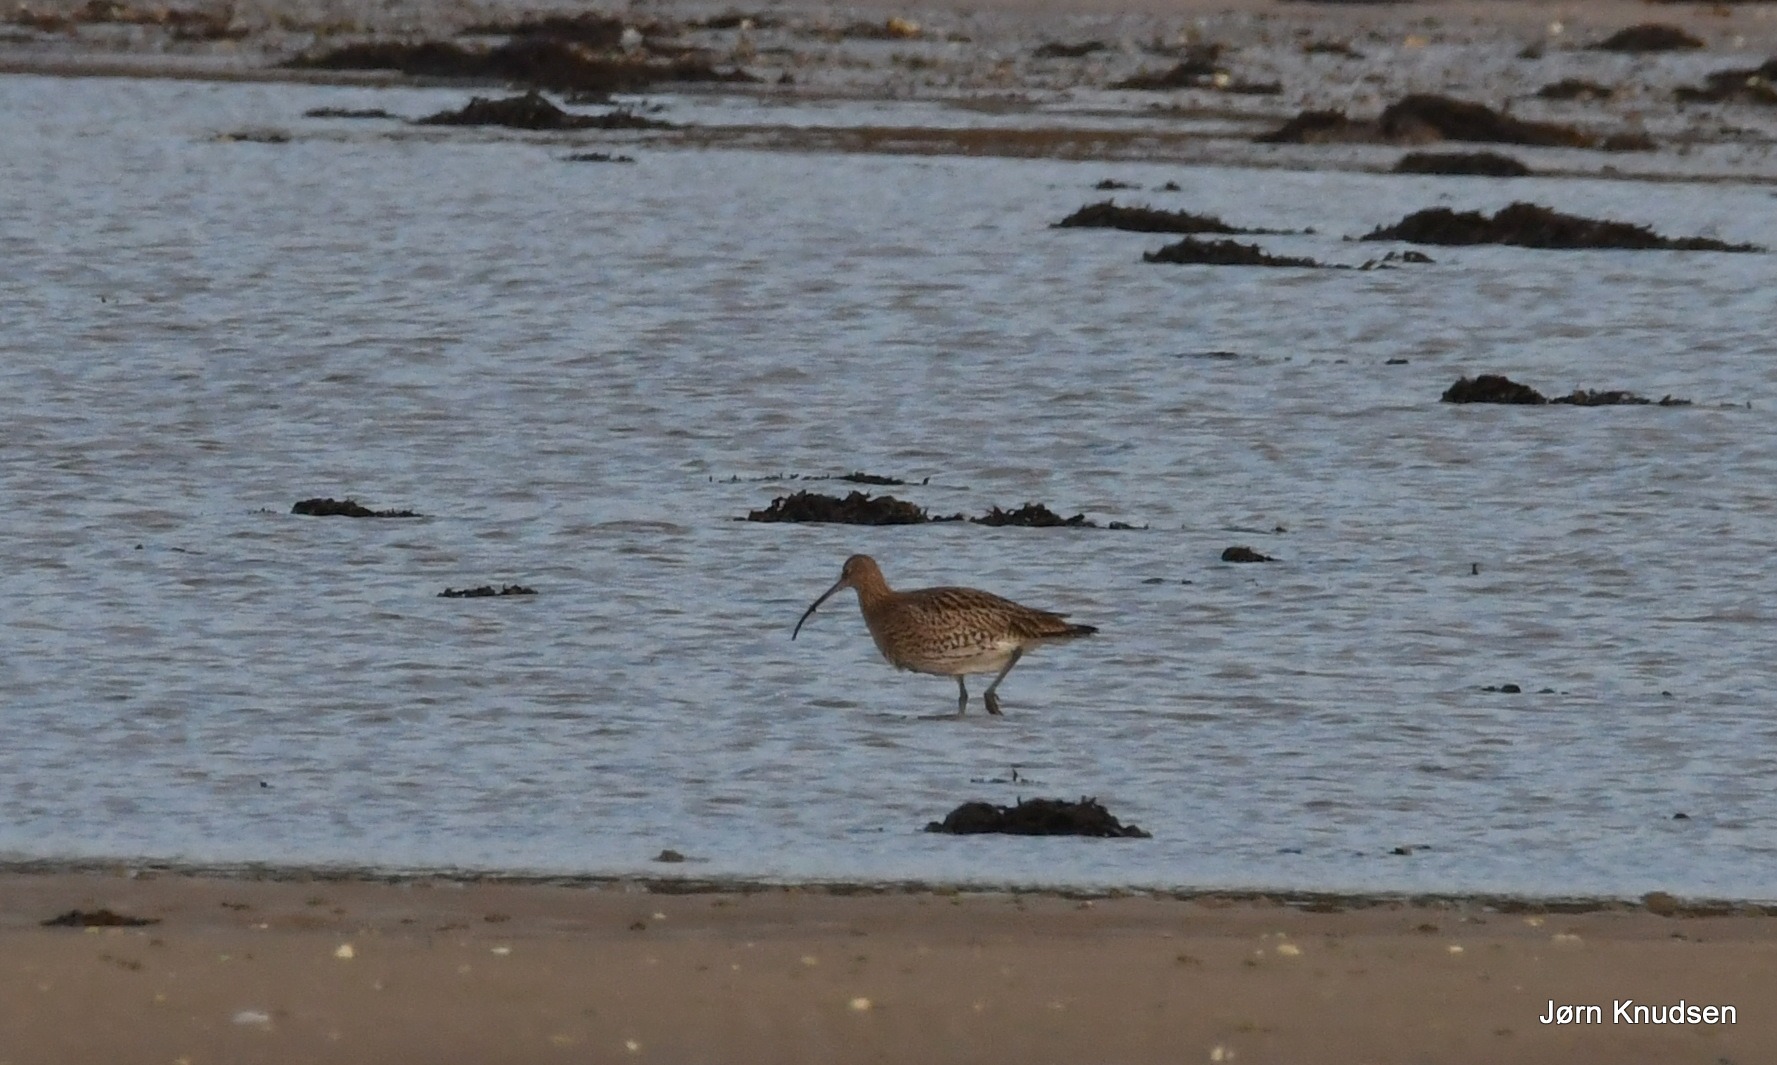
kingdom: Animalia
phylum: Chordata
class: Aves
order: Charadriiformes
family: Scolopacidae
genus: Numenius
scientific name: Numenius arquata
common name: Storspove
